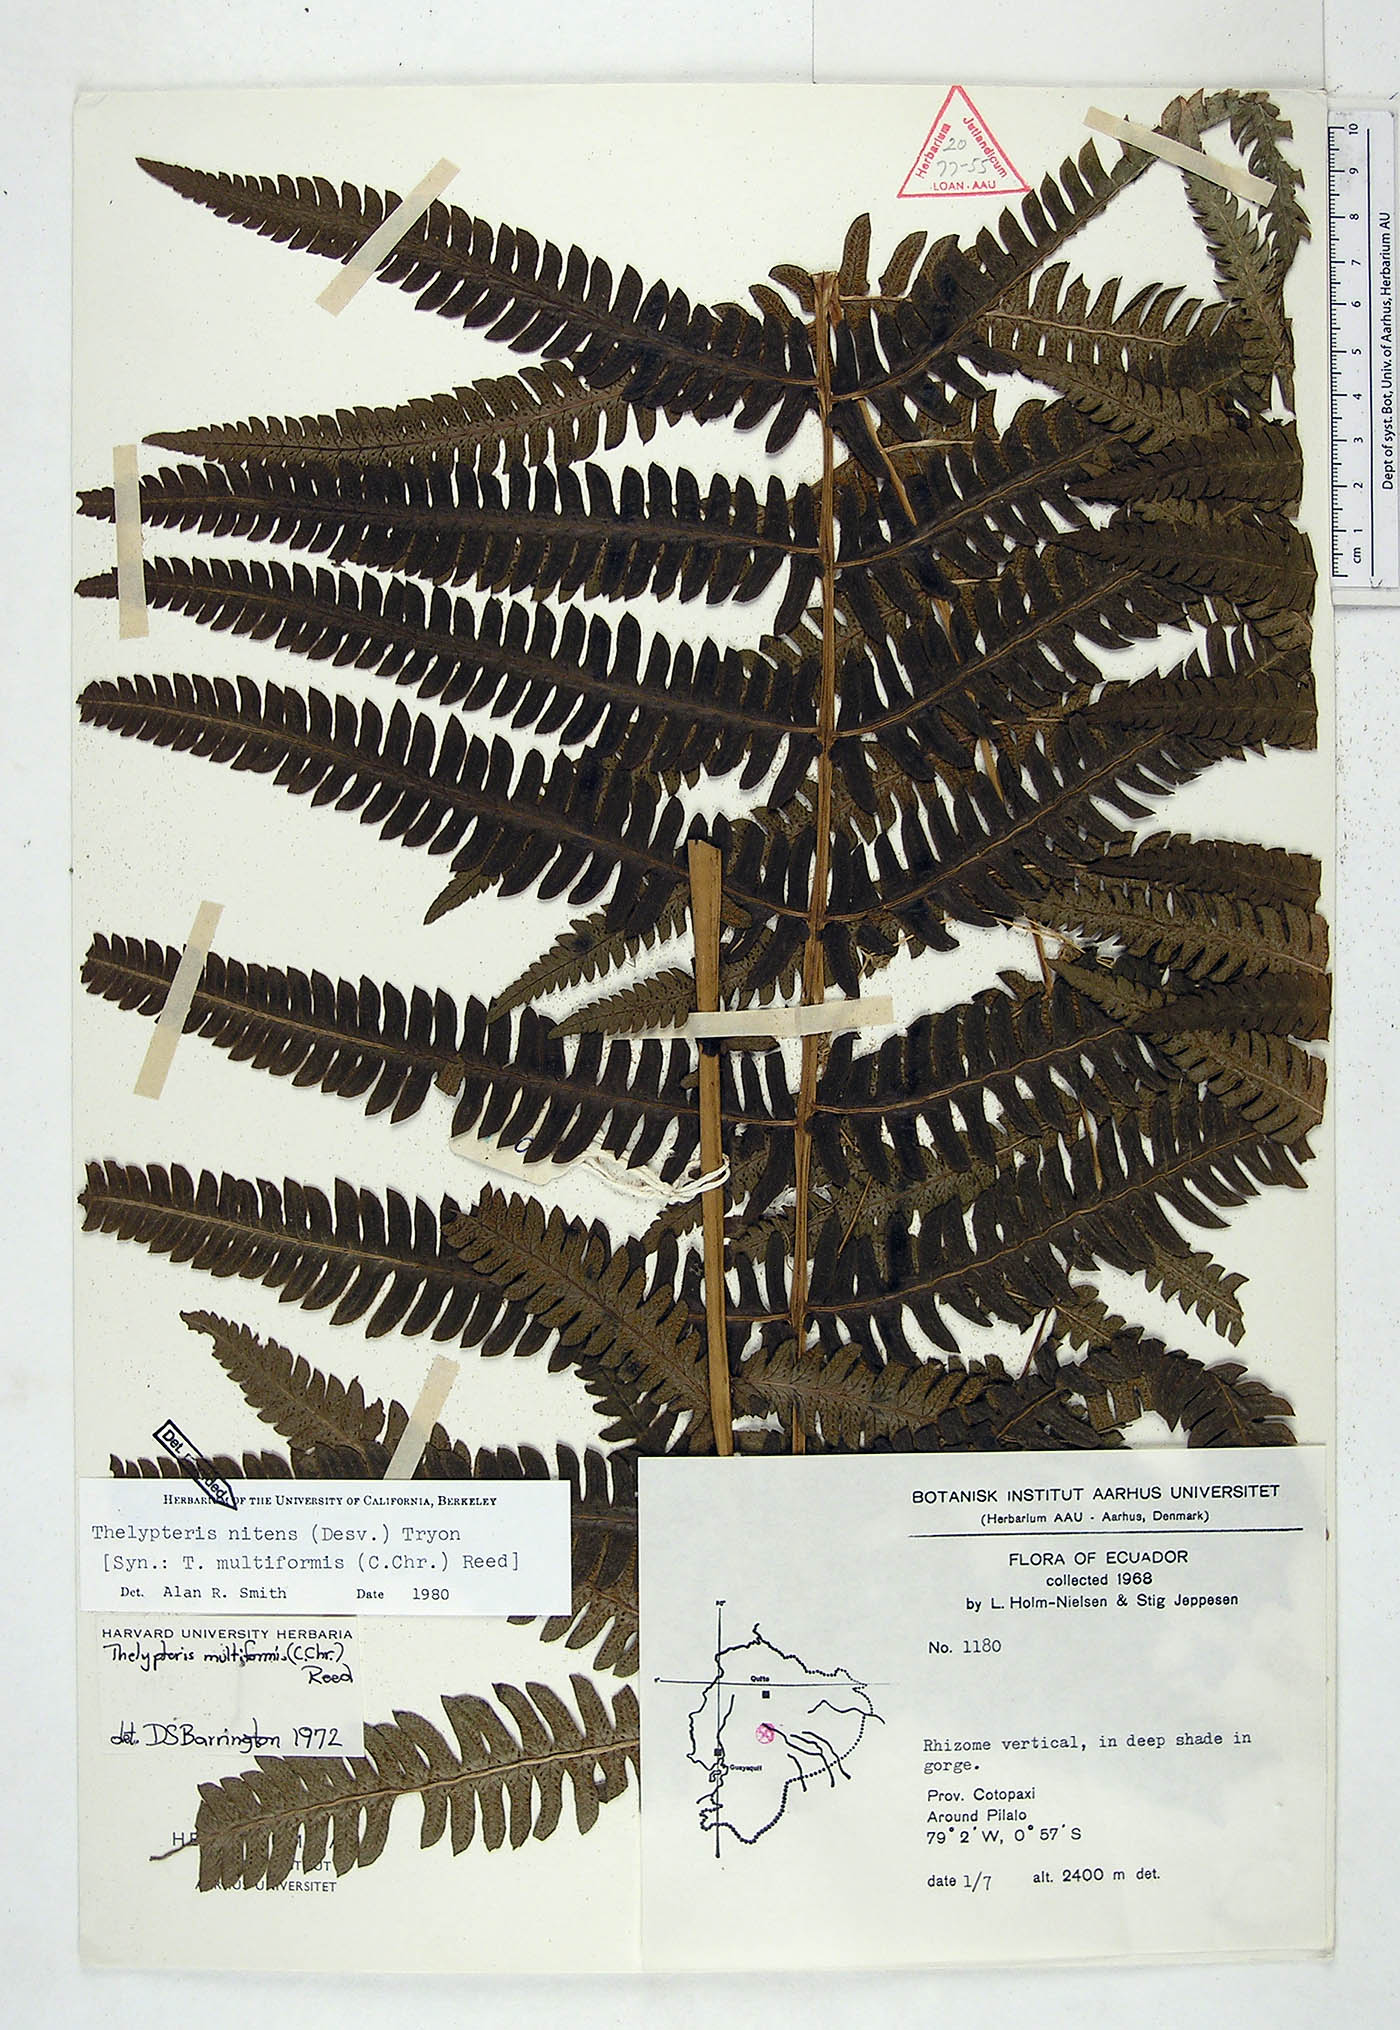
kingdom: Plantae
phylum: Tracheophyta
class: Polypodiopsida
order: Polypodiales
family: Thelypteridaceae
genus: Amauropelta
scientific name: Amauropelta nitens
